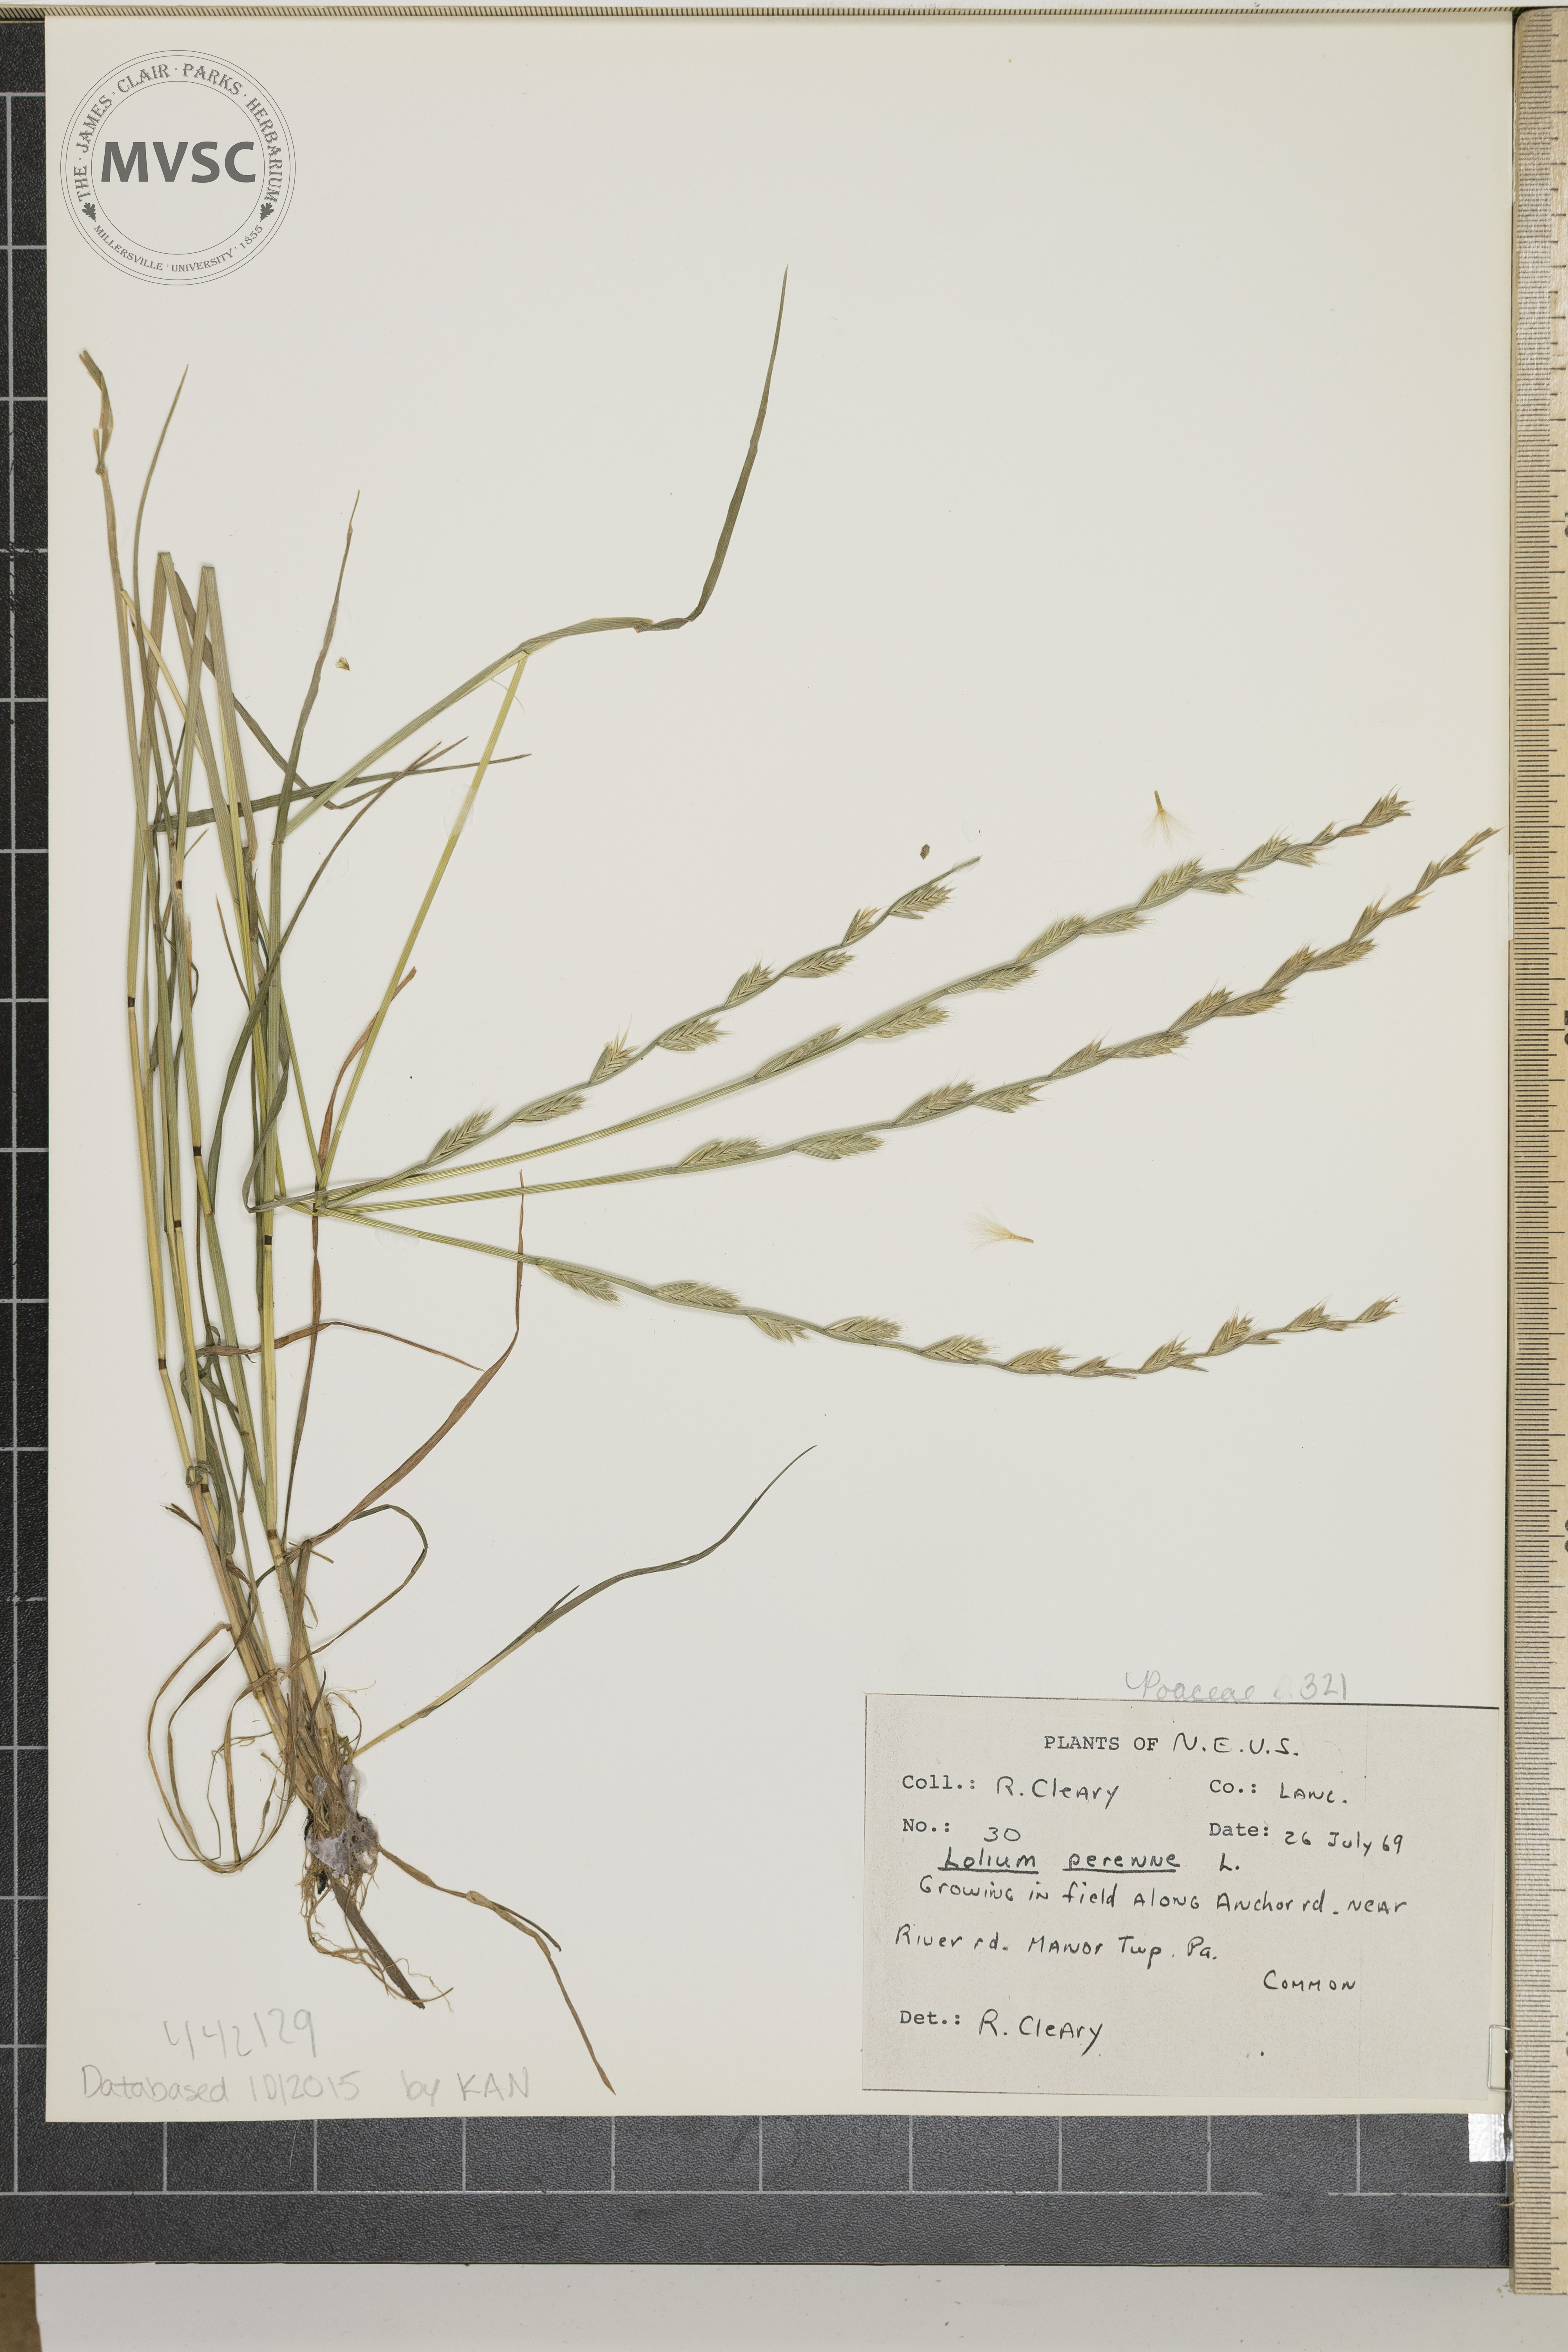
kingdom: Plantae
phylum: Tracheophyta
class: Liliopsida
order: Poales
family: Poaceae
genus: Lolium
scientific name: Lolium perenne
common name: Perennial ryegrass
